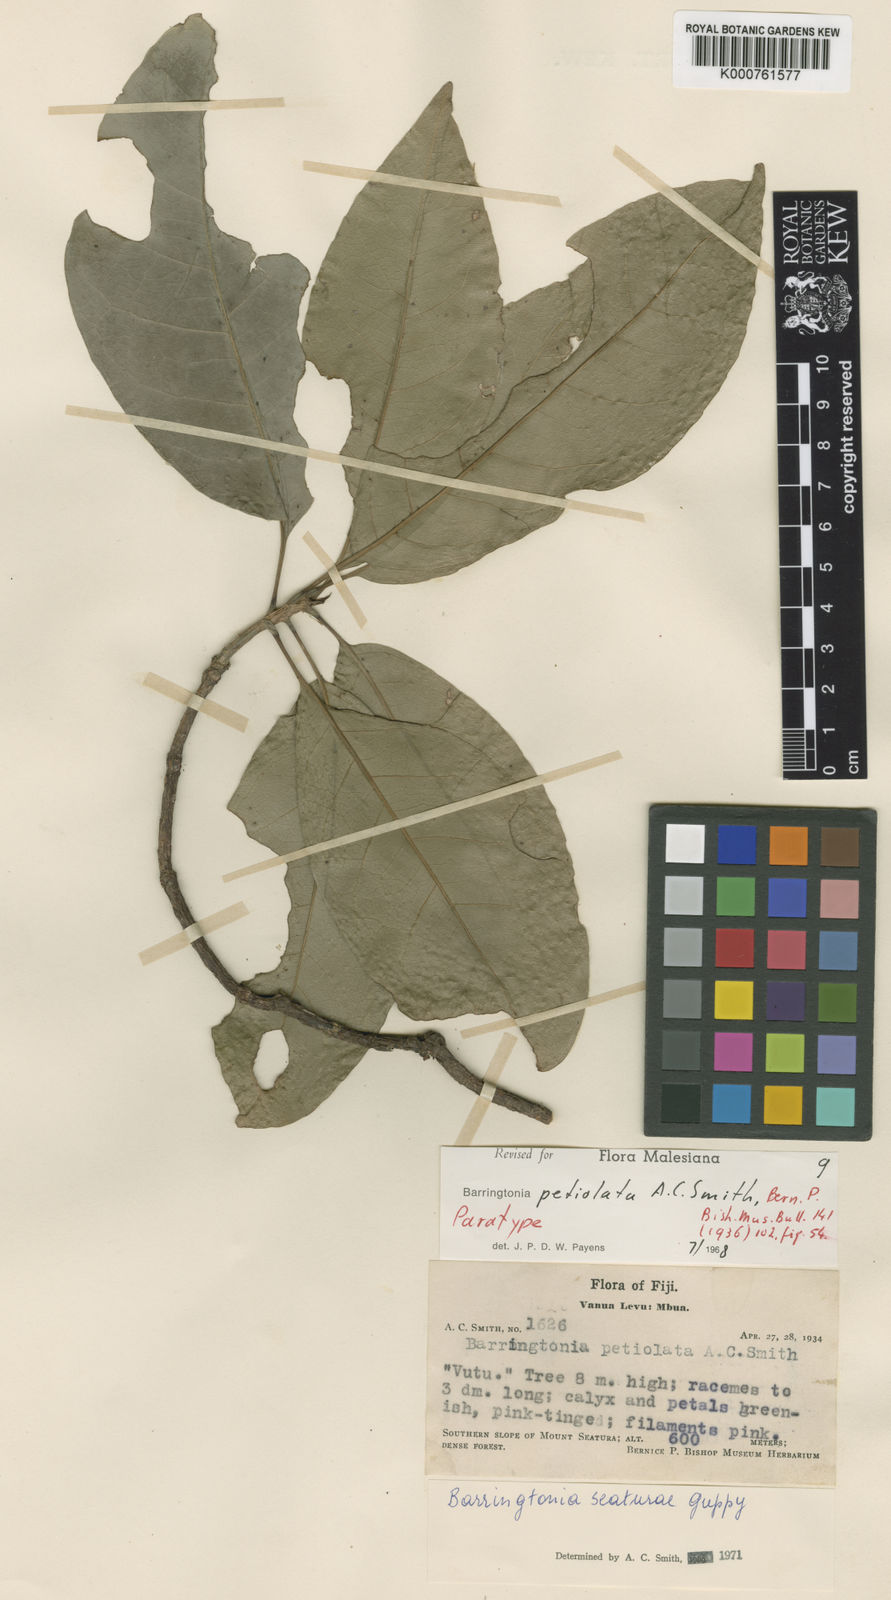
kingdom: Plantae
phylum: Tracheophyta
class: Magnoliopsida
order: Ericales
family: Lecythidaceae
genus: Barringtonia
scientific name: Barringtonia seaturae
